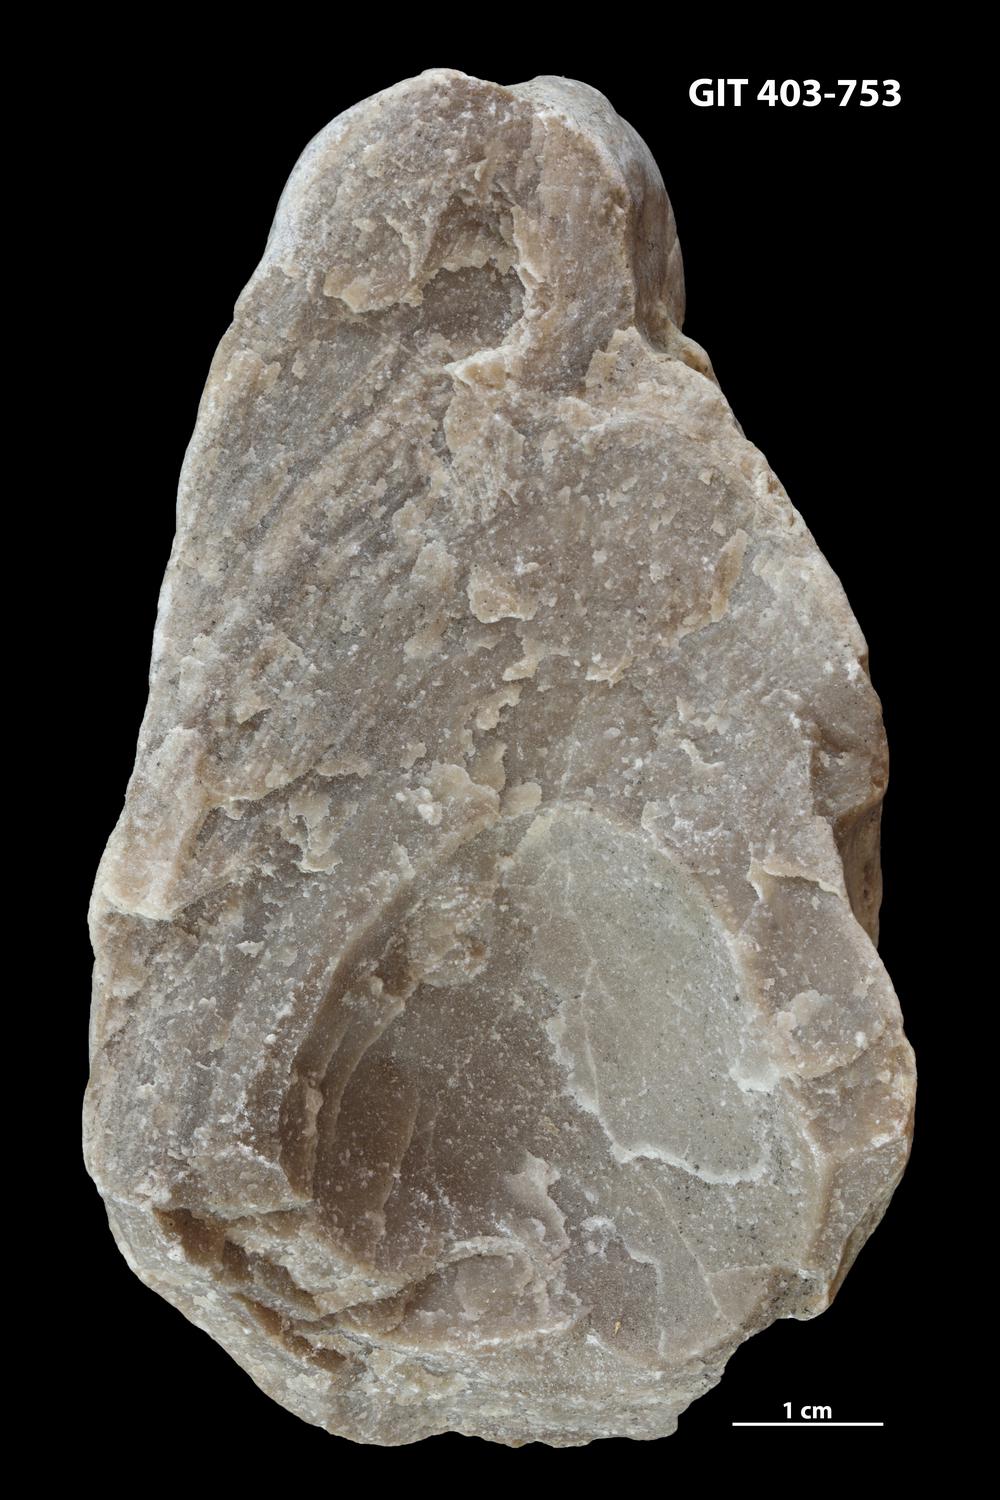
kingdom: Animalia
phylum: Porifera
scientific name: Porifera
